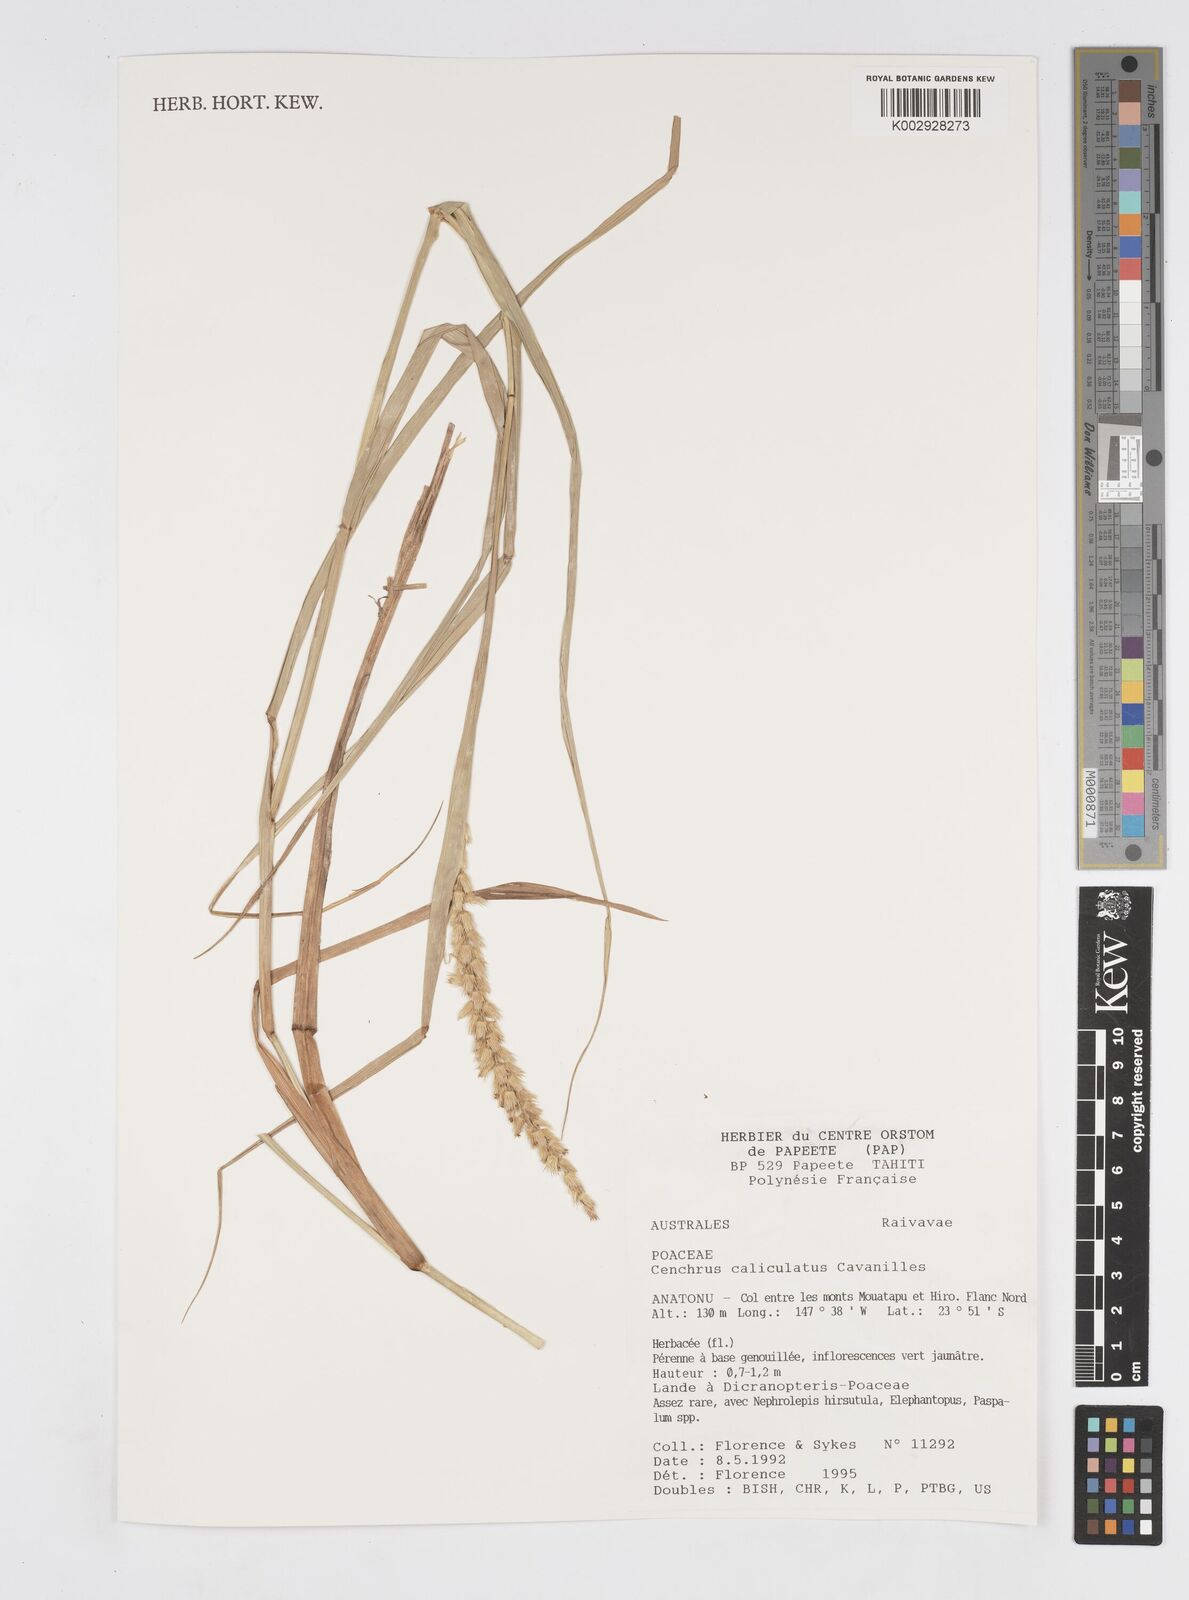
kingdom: Plantae
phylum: Tracheophyta
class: Liliopsida
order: Poales
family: Poaceae
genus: Cenchrus
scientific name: Cenchrus caliculatus
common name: Large bur grass
